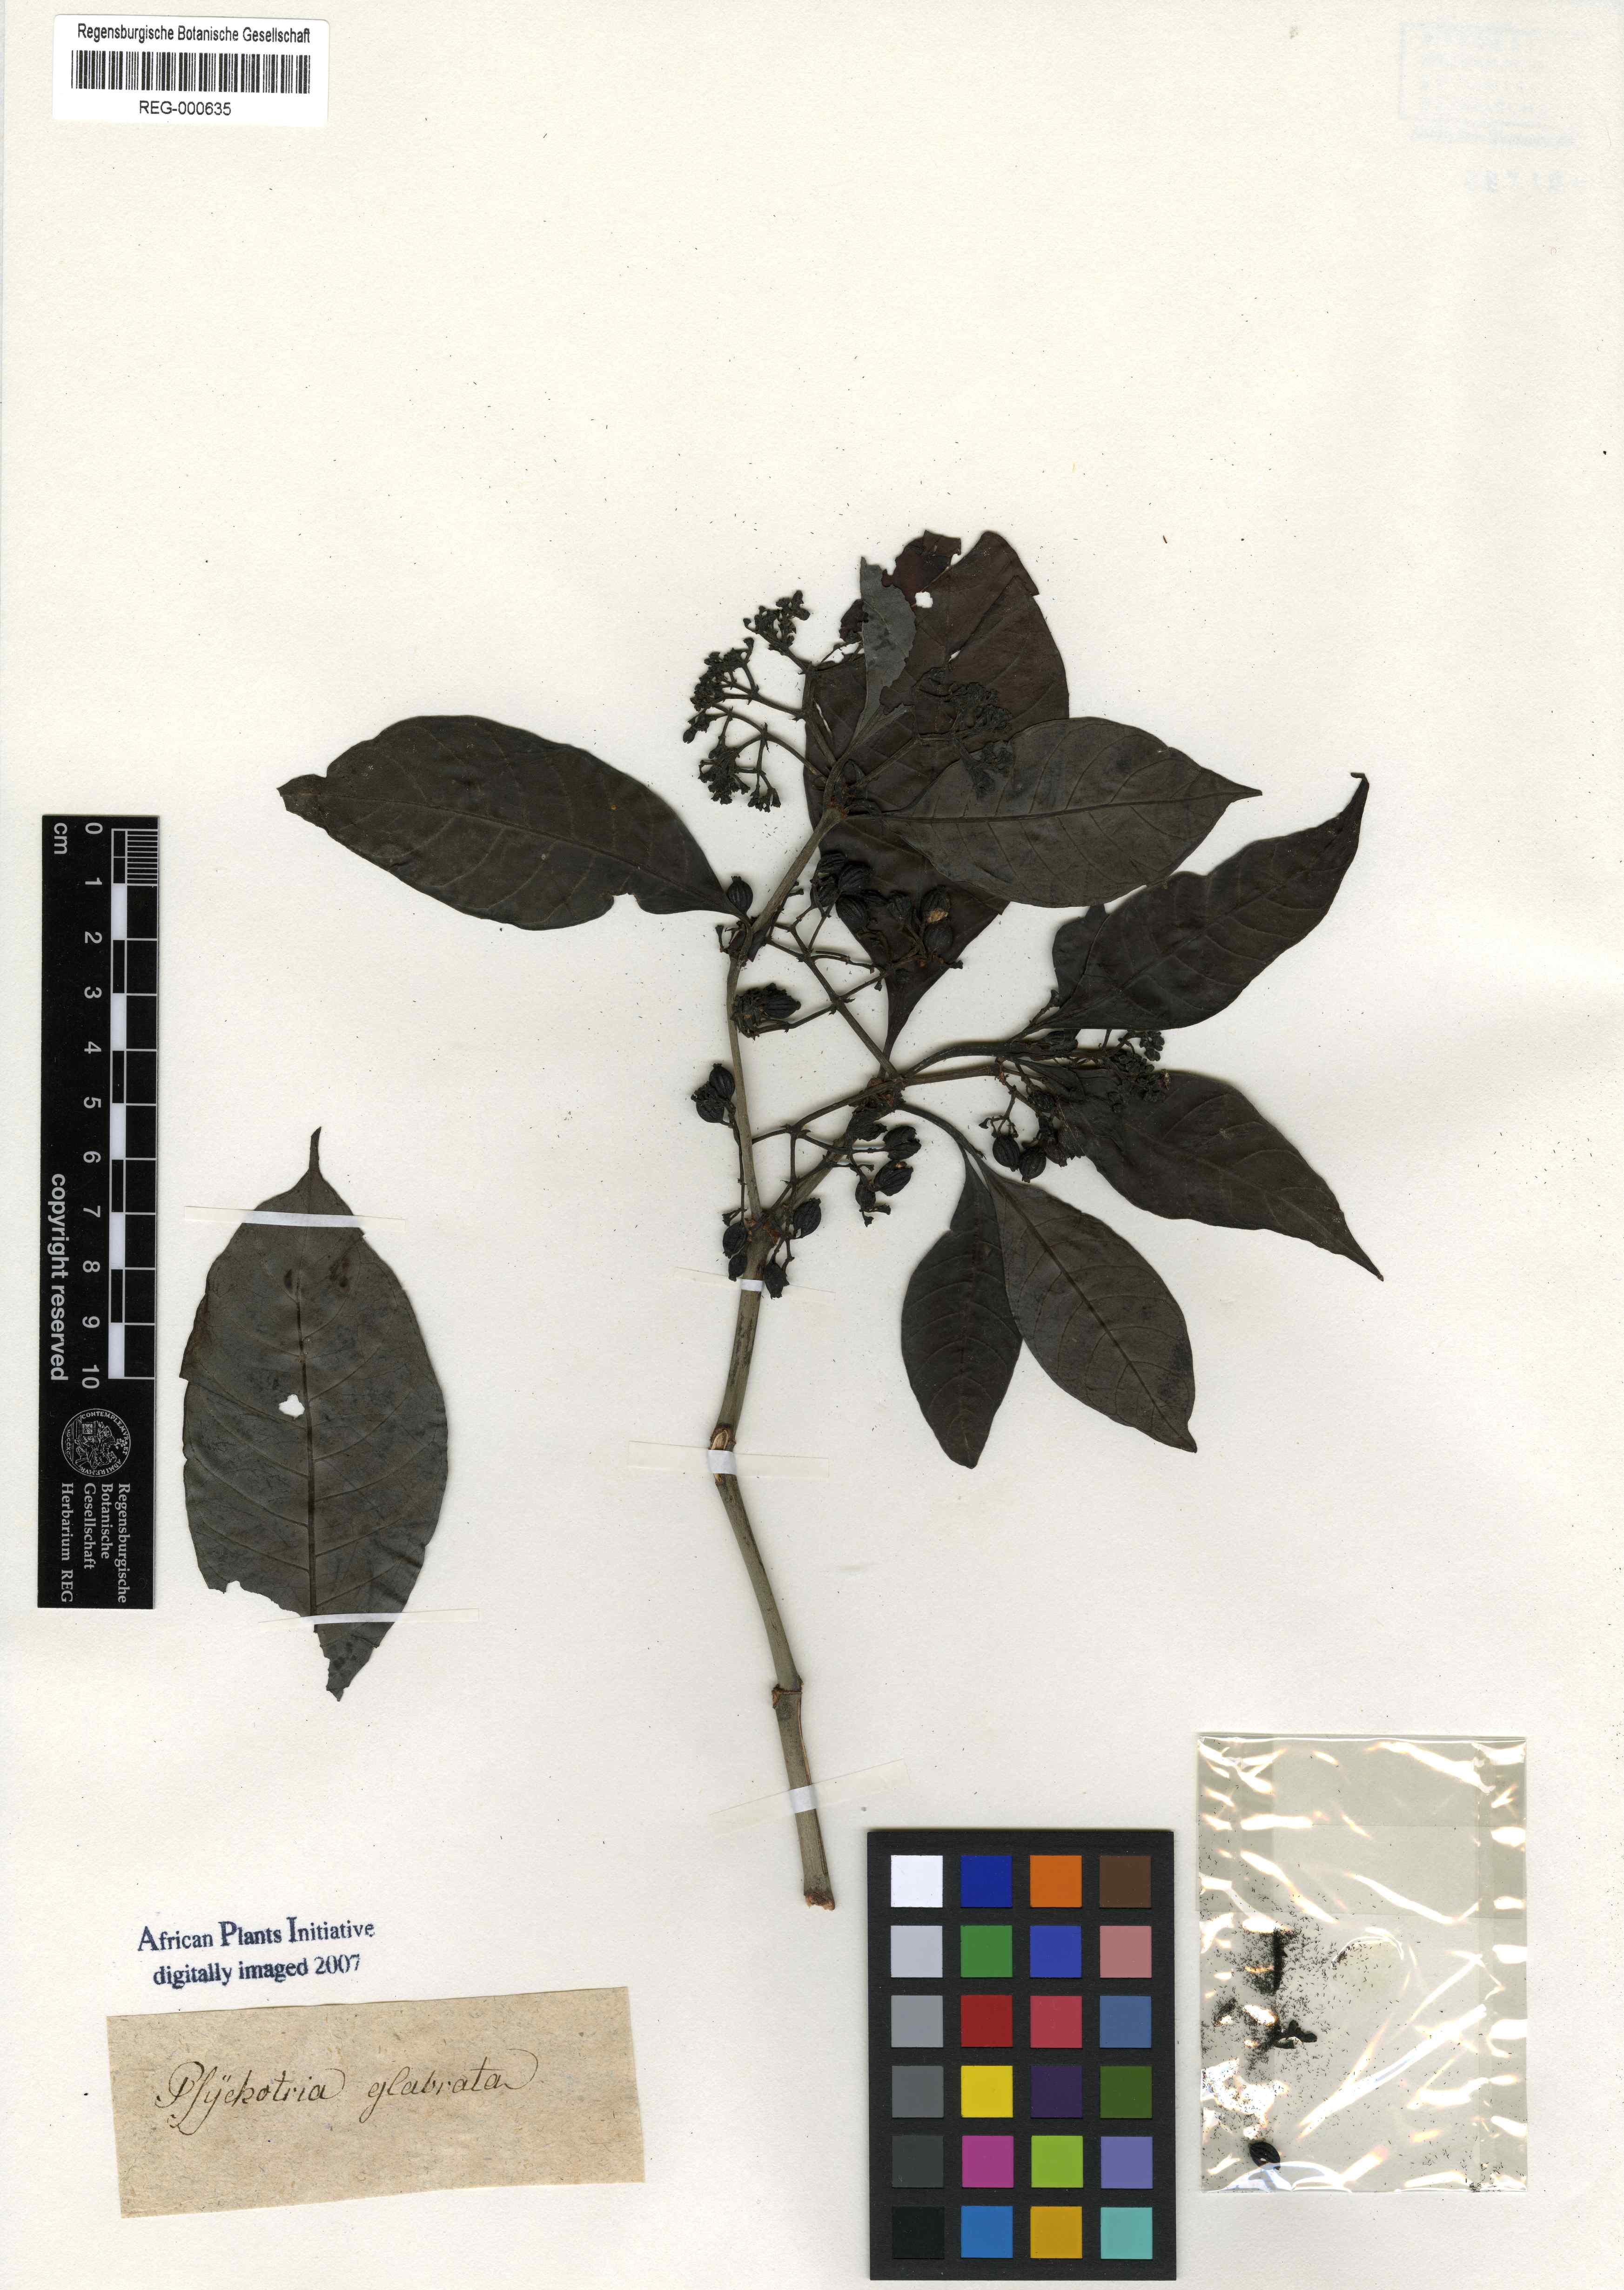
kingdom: Plantae
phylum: Tracheophyta
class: Magnoliopsida
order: Gentianales
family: Rubiaceae
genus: Psychotria
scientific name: Psychotria glabrata
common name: Browne's wild coffee
